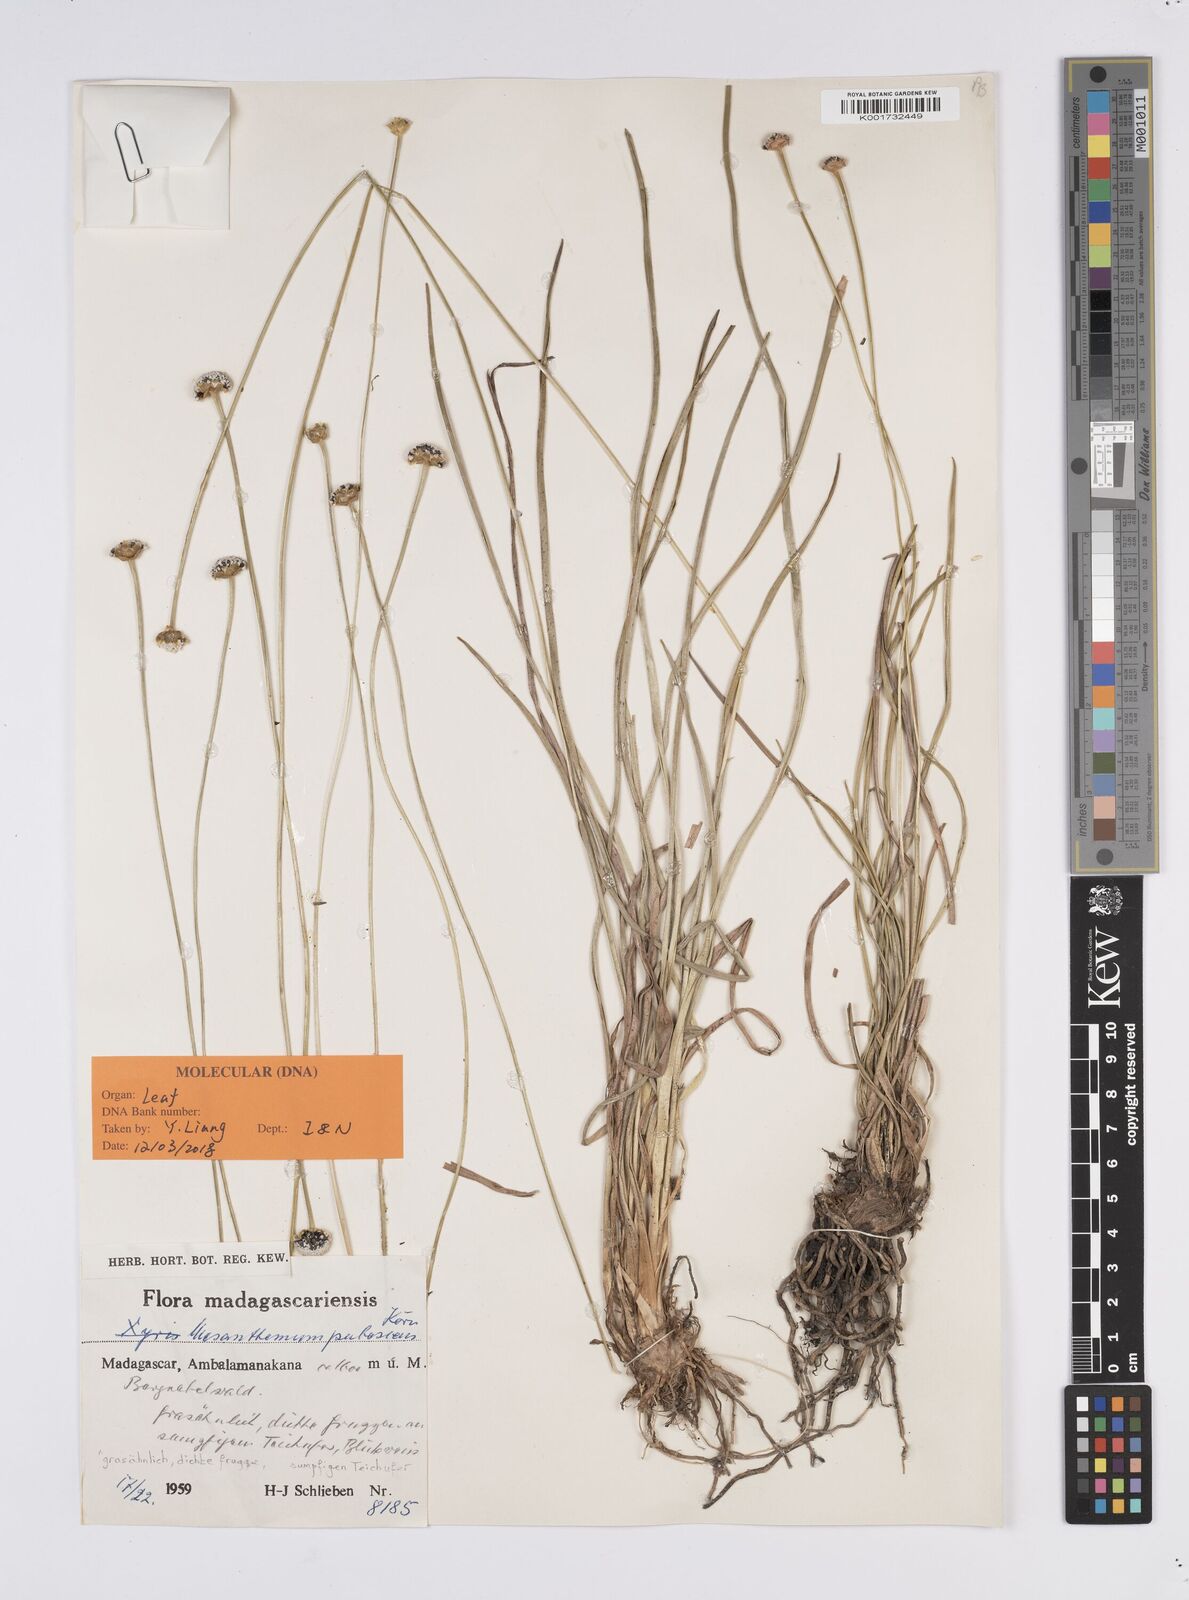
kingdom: Plantae
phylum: Tracheophyta
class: Liliopsida
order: Poales
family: Eriocaulaceae
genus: Mesanthemum
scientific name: Mesanthemum pubescens
